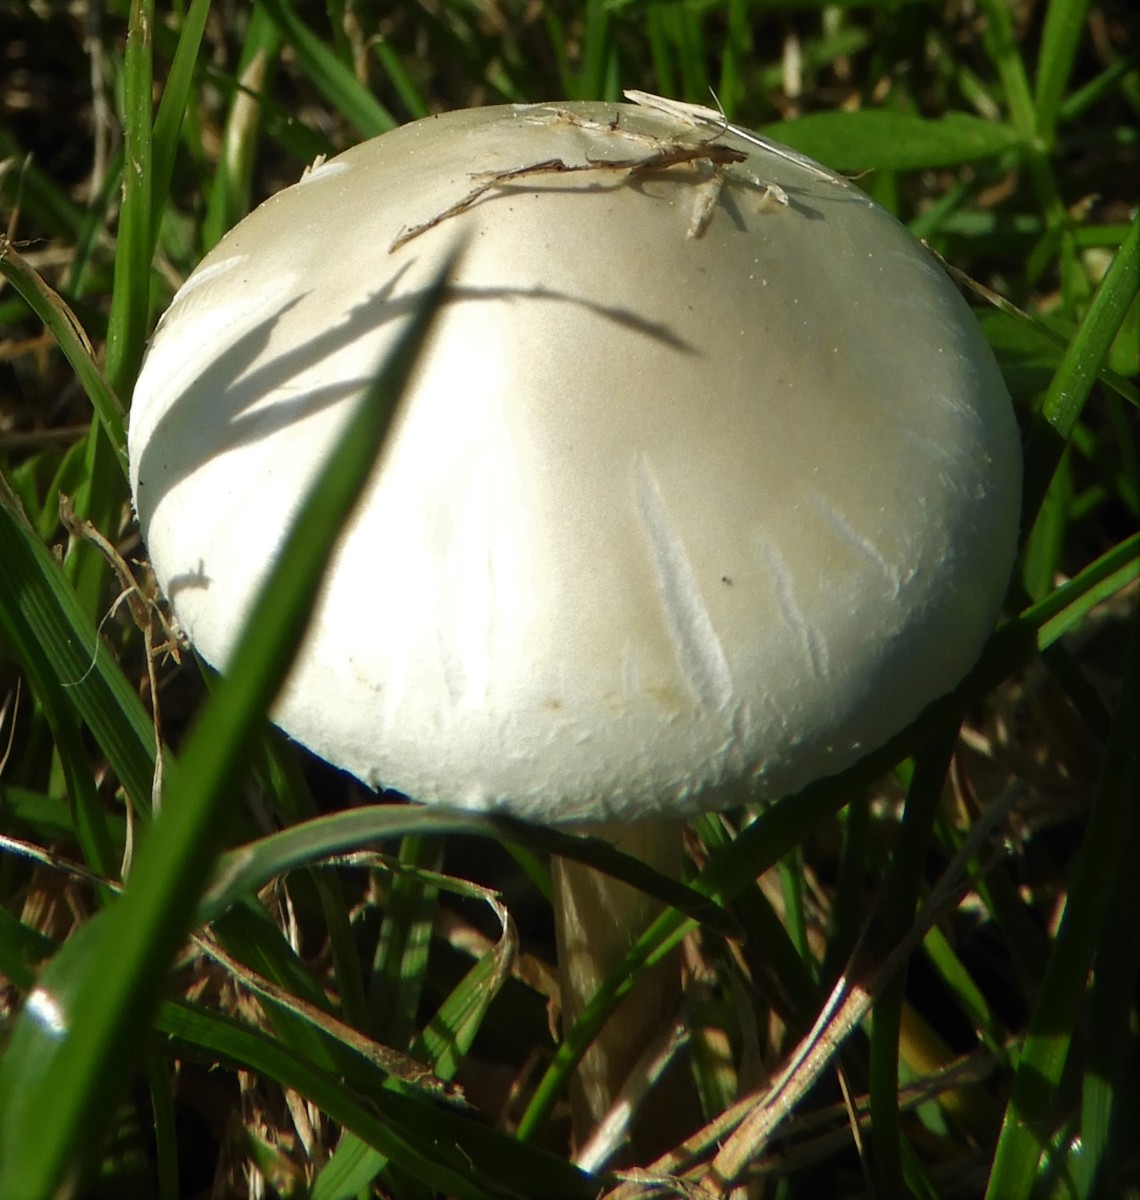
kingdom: Fungi
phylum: Basidiomycota
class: Agaricomycetes
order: Agaricales
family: Strophariaceae
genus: Agrocybe
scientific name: Agrocybe dura
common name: fastkødet agerhat
